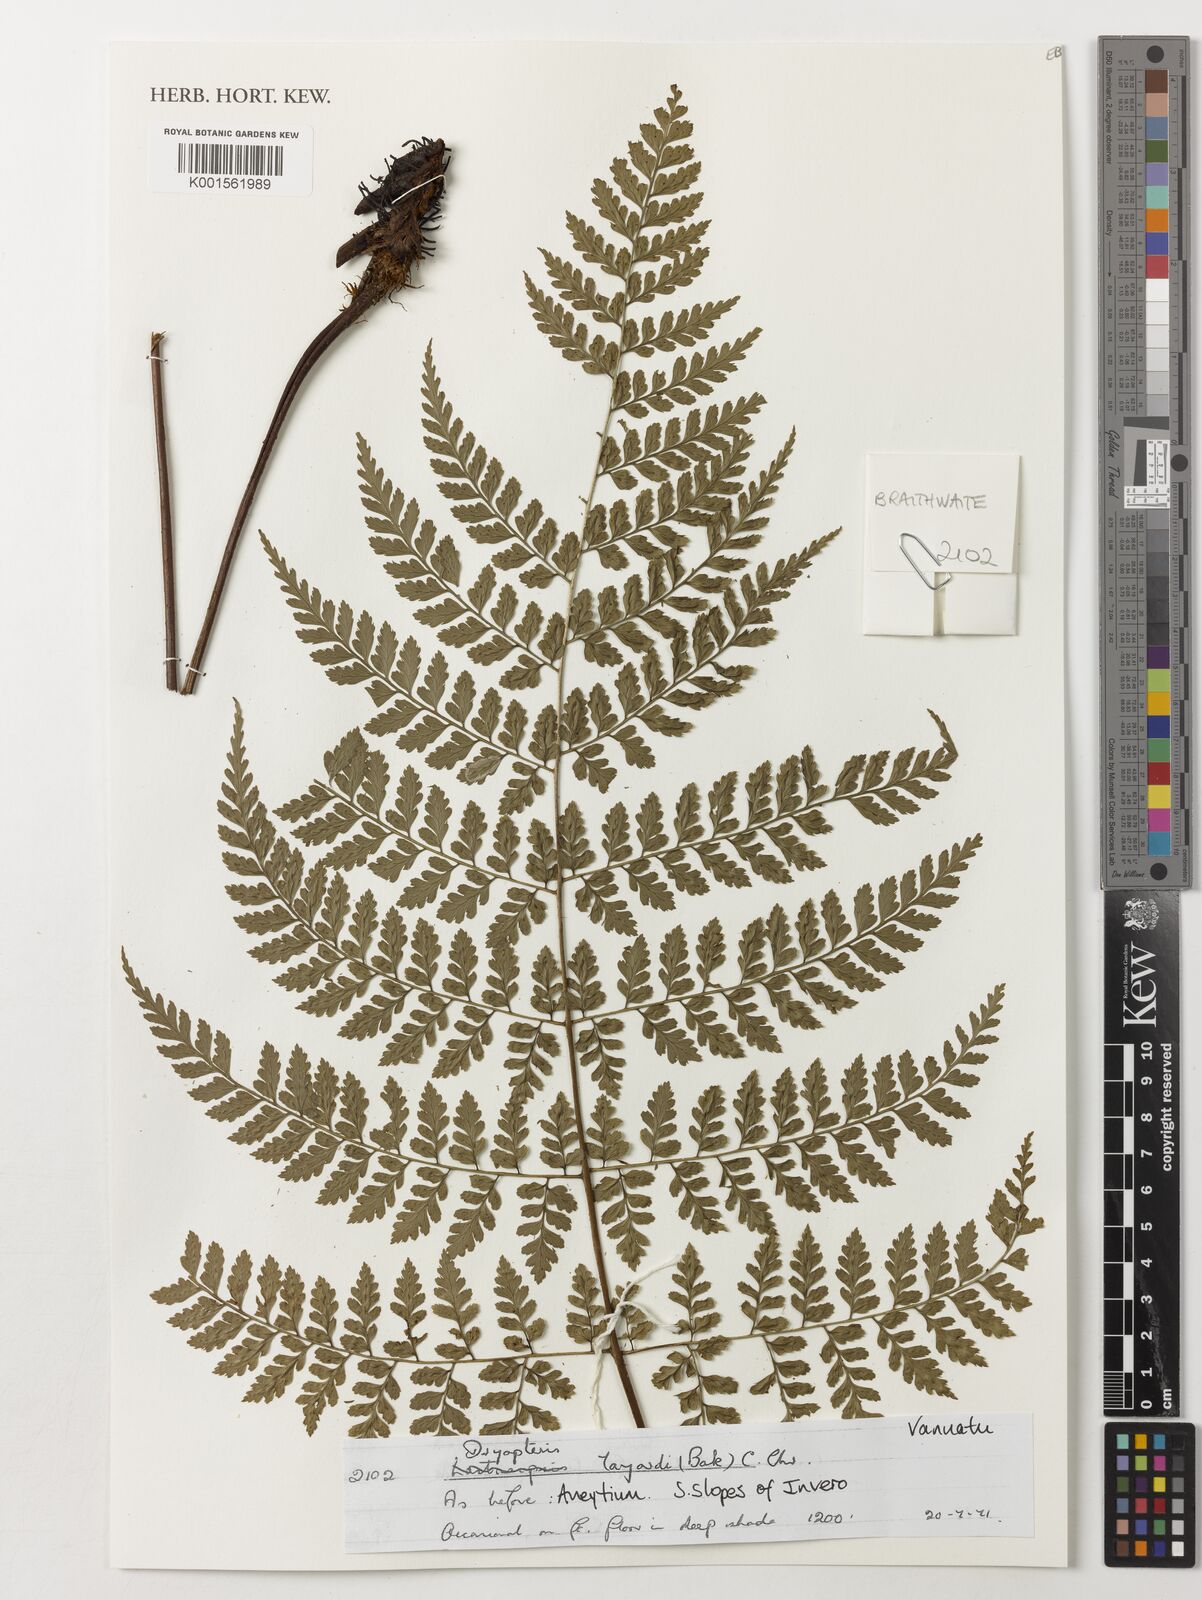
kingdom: Plantae
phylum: Tracheophyta
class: Polypodiopsida
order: Polypodiales
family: Dryopteridaceae
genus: Dryopteris
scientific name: Dryopteris aneitensis
